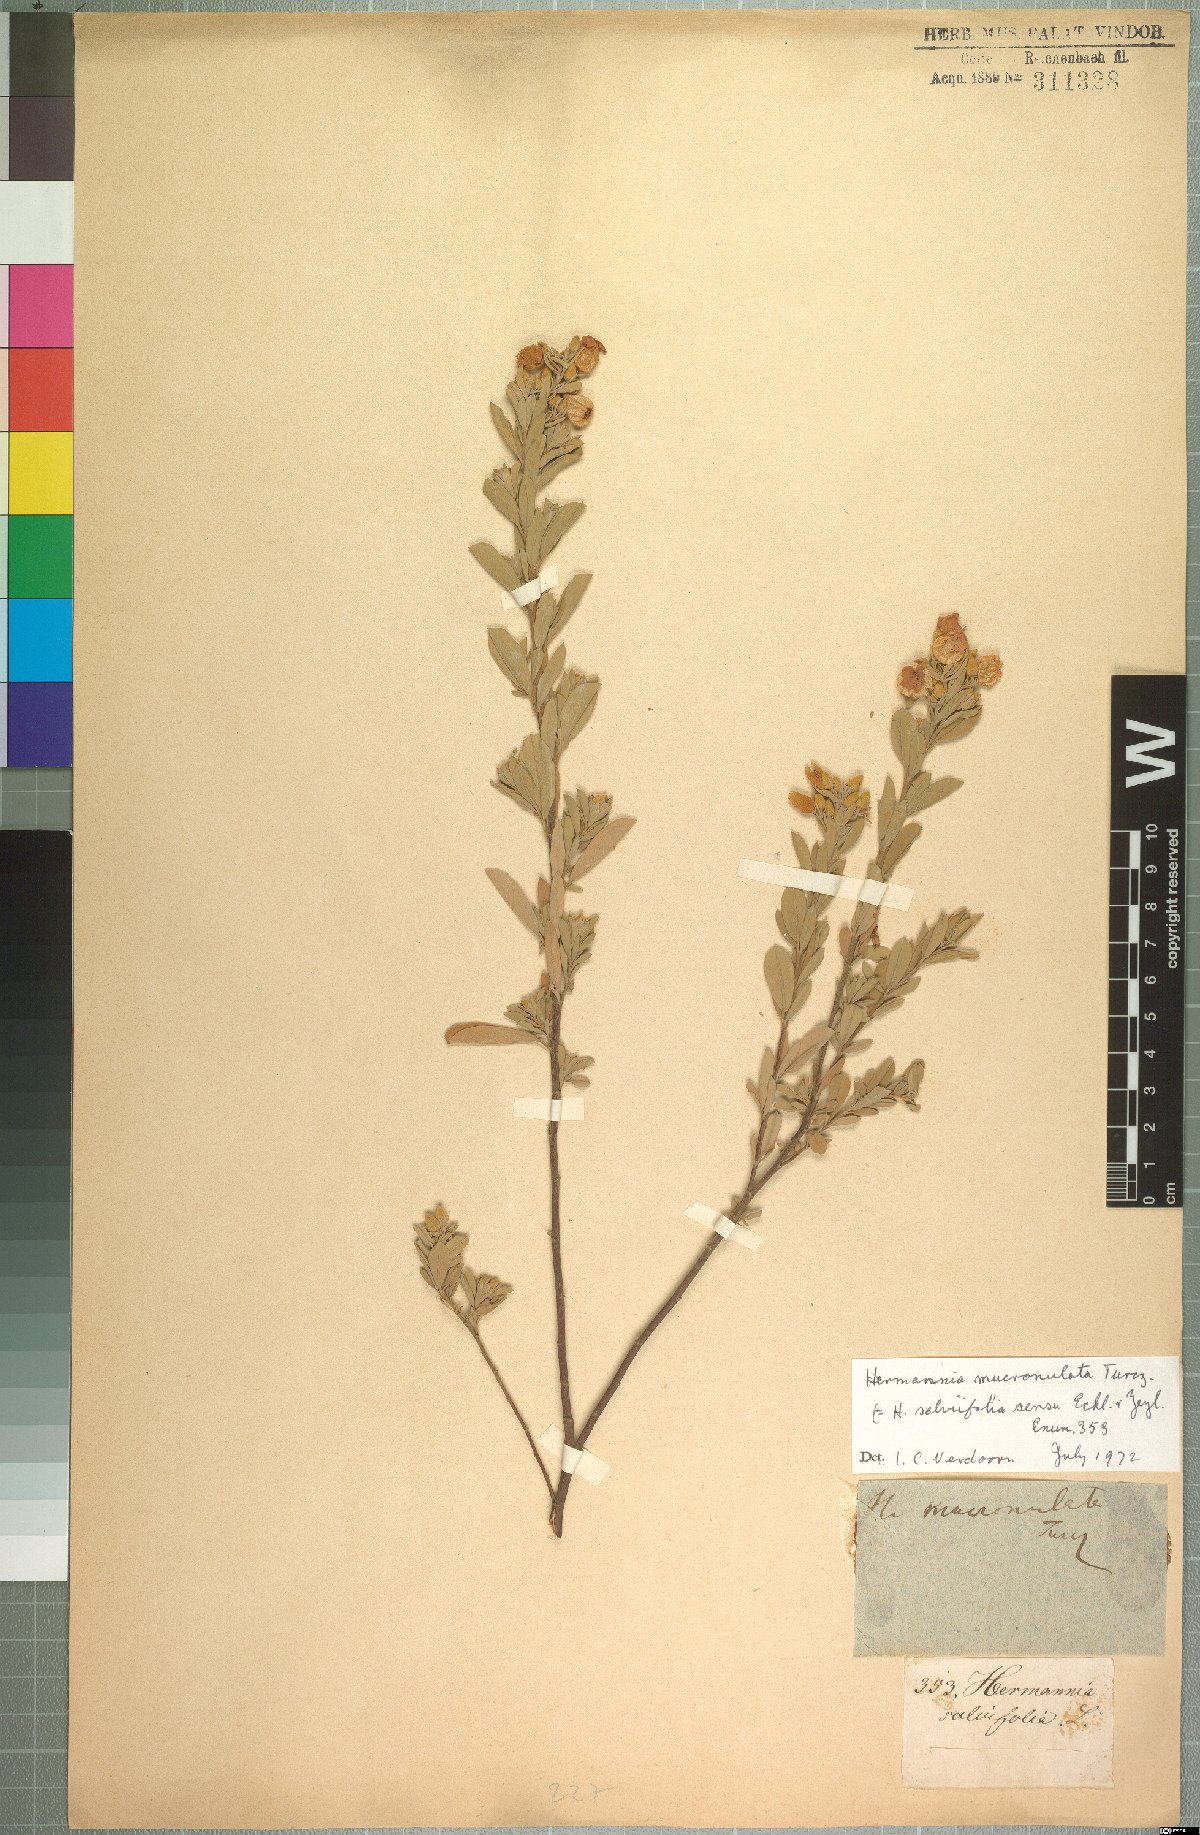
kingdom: Plantae
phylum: Tracheophyta
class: Magnoliopsida
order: Malvales
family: Malvaceae
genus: Hermannia
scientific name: Hermannia mucronulata
